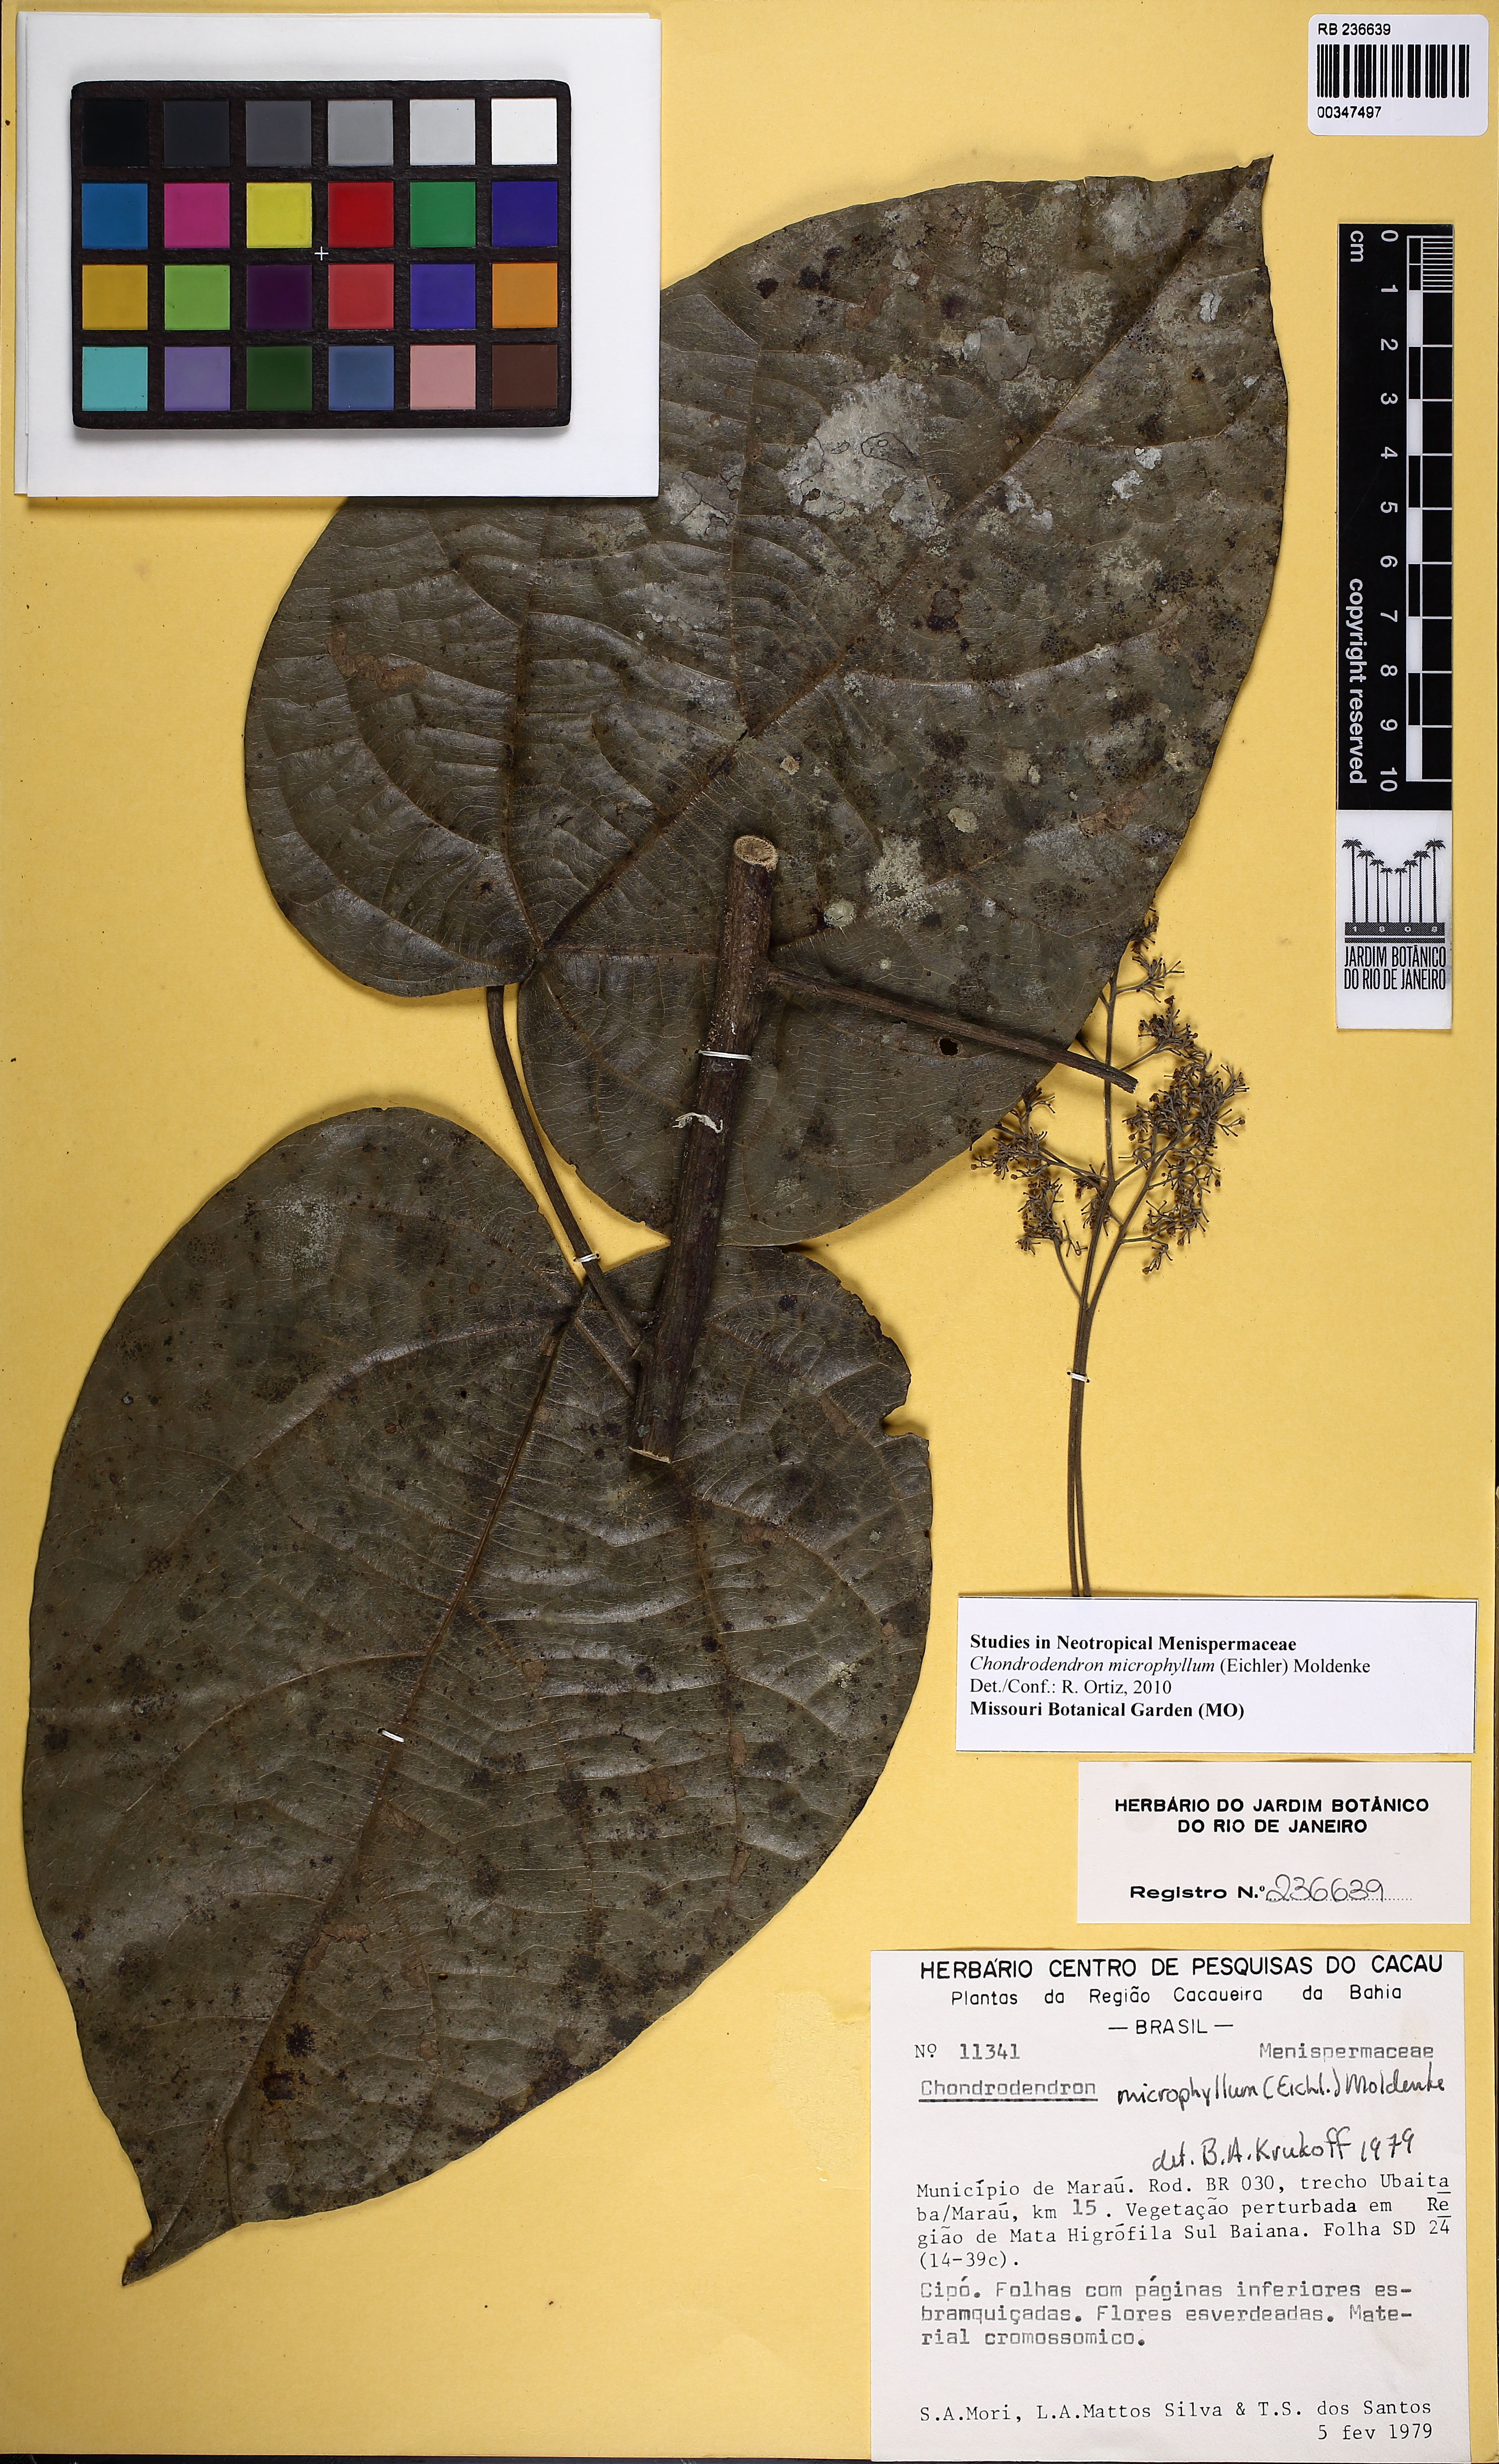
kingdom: Plantae
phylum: Tracheophyta
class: Magnoliopsida
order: Ranunculales
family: Menispermaceae
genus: Chondrodendron
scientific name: Chondrodendron platyphyllum
